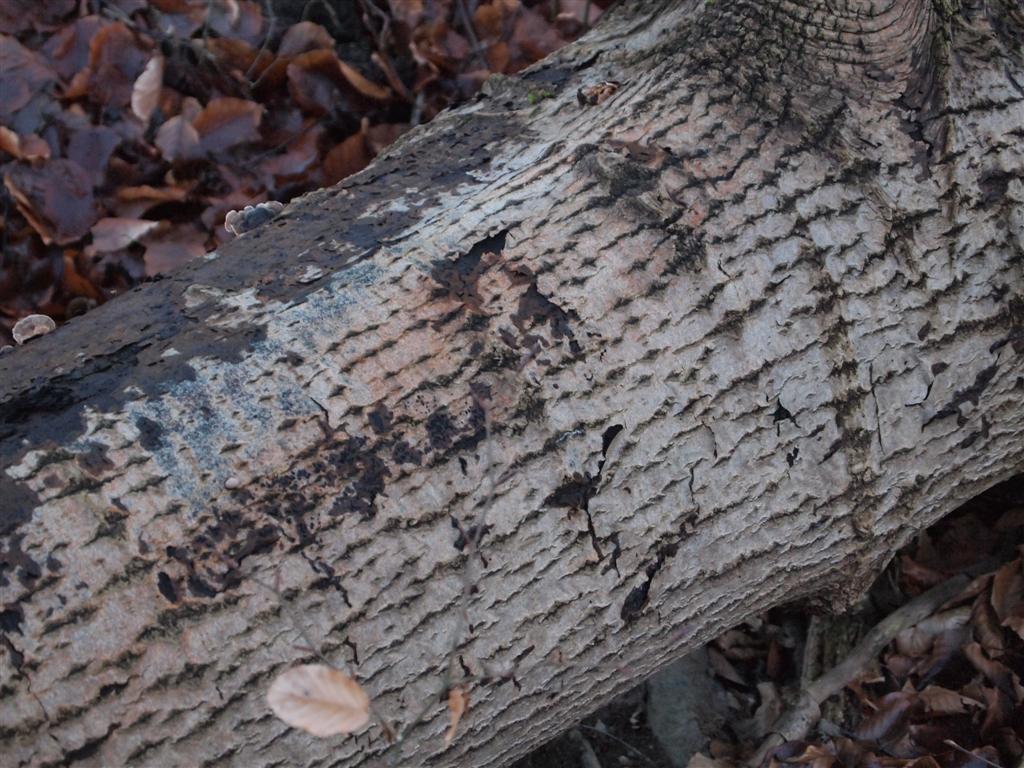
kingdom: Fungi
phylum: Basidiomycota
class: Agaricomycetes
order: Agaricales
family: Pleurotaceae
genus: Pleurotus
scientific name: Pleurotus ostreatus
